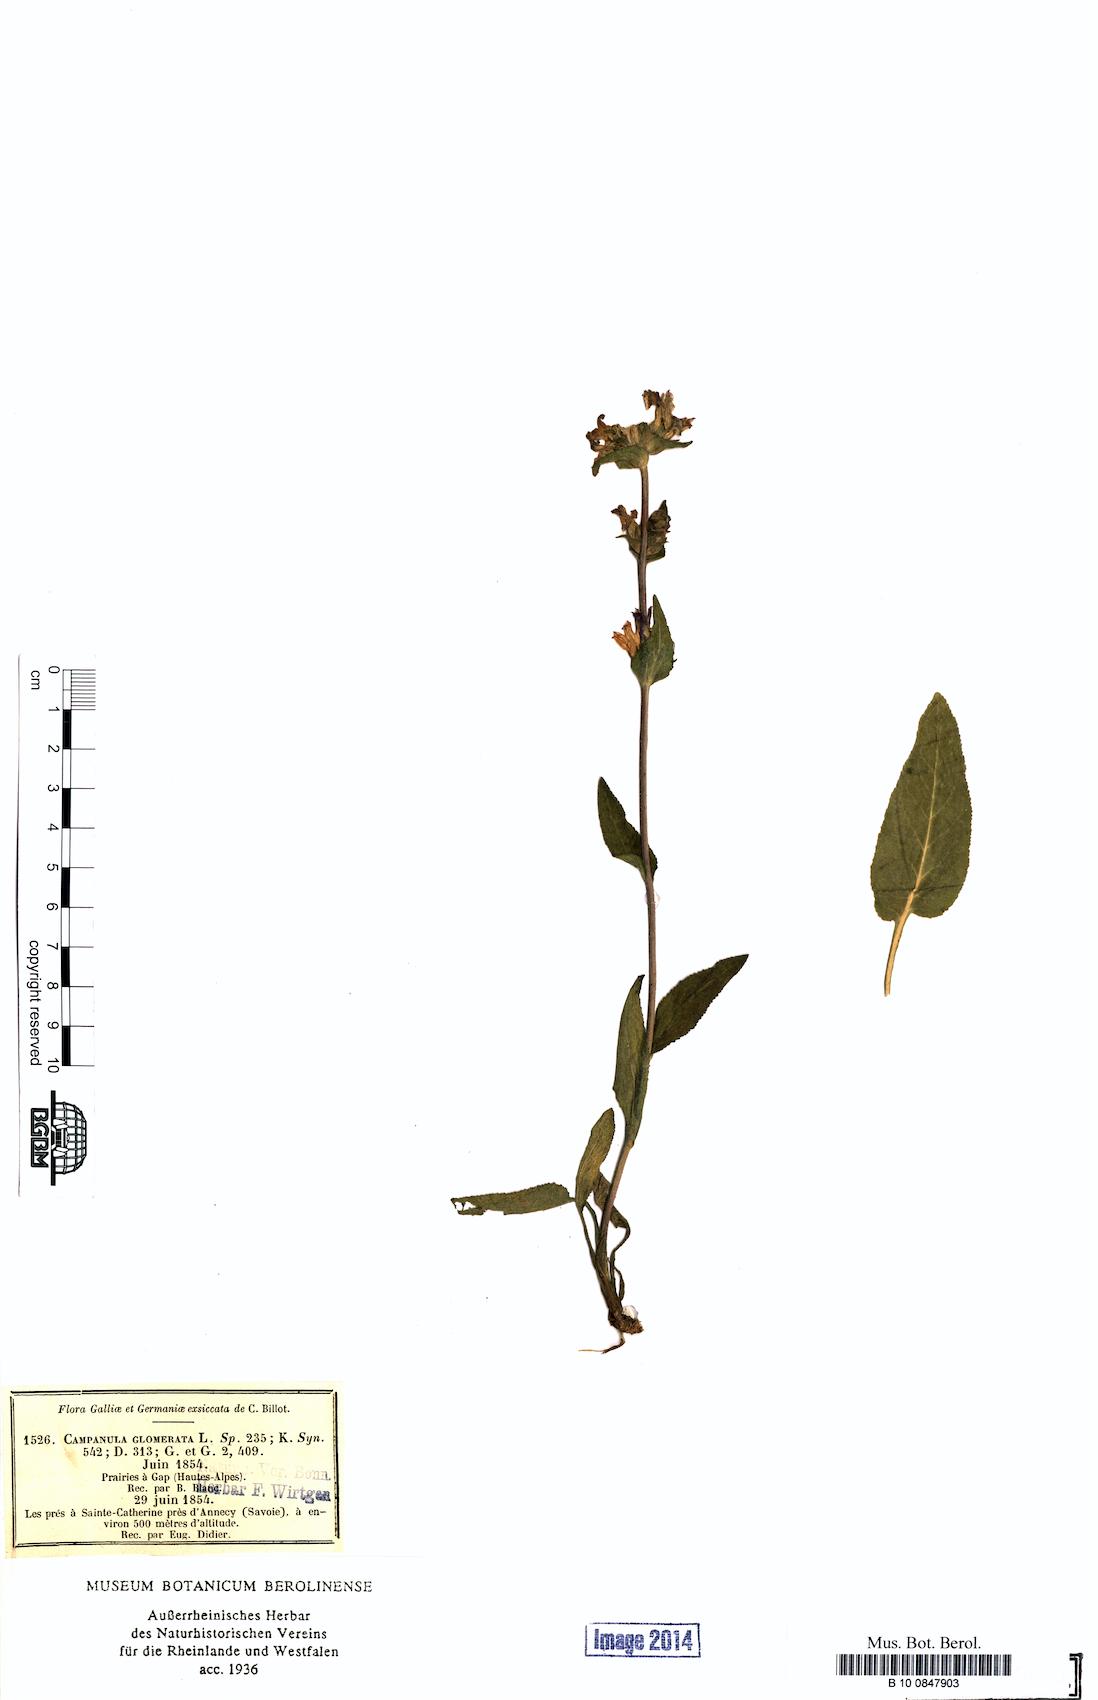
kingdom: Plantae
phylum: Tracheophyta
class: Magnoliopsida
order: Asterales
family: Campanulaceae
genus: Campanula
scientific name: Campanula glomerata
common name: Clustered bellflower
